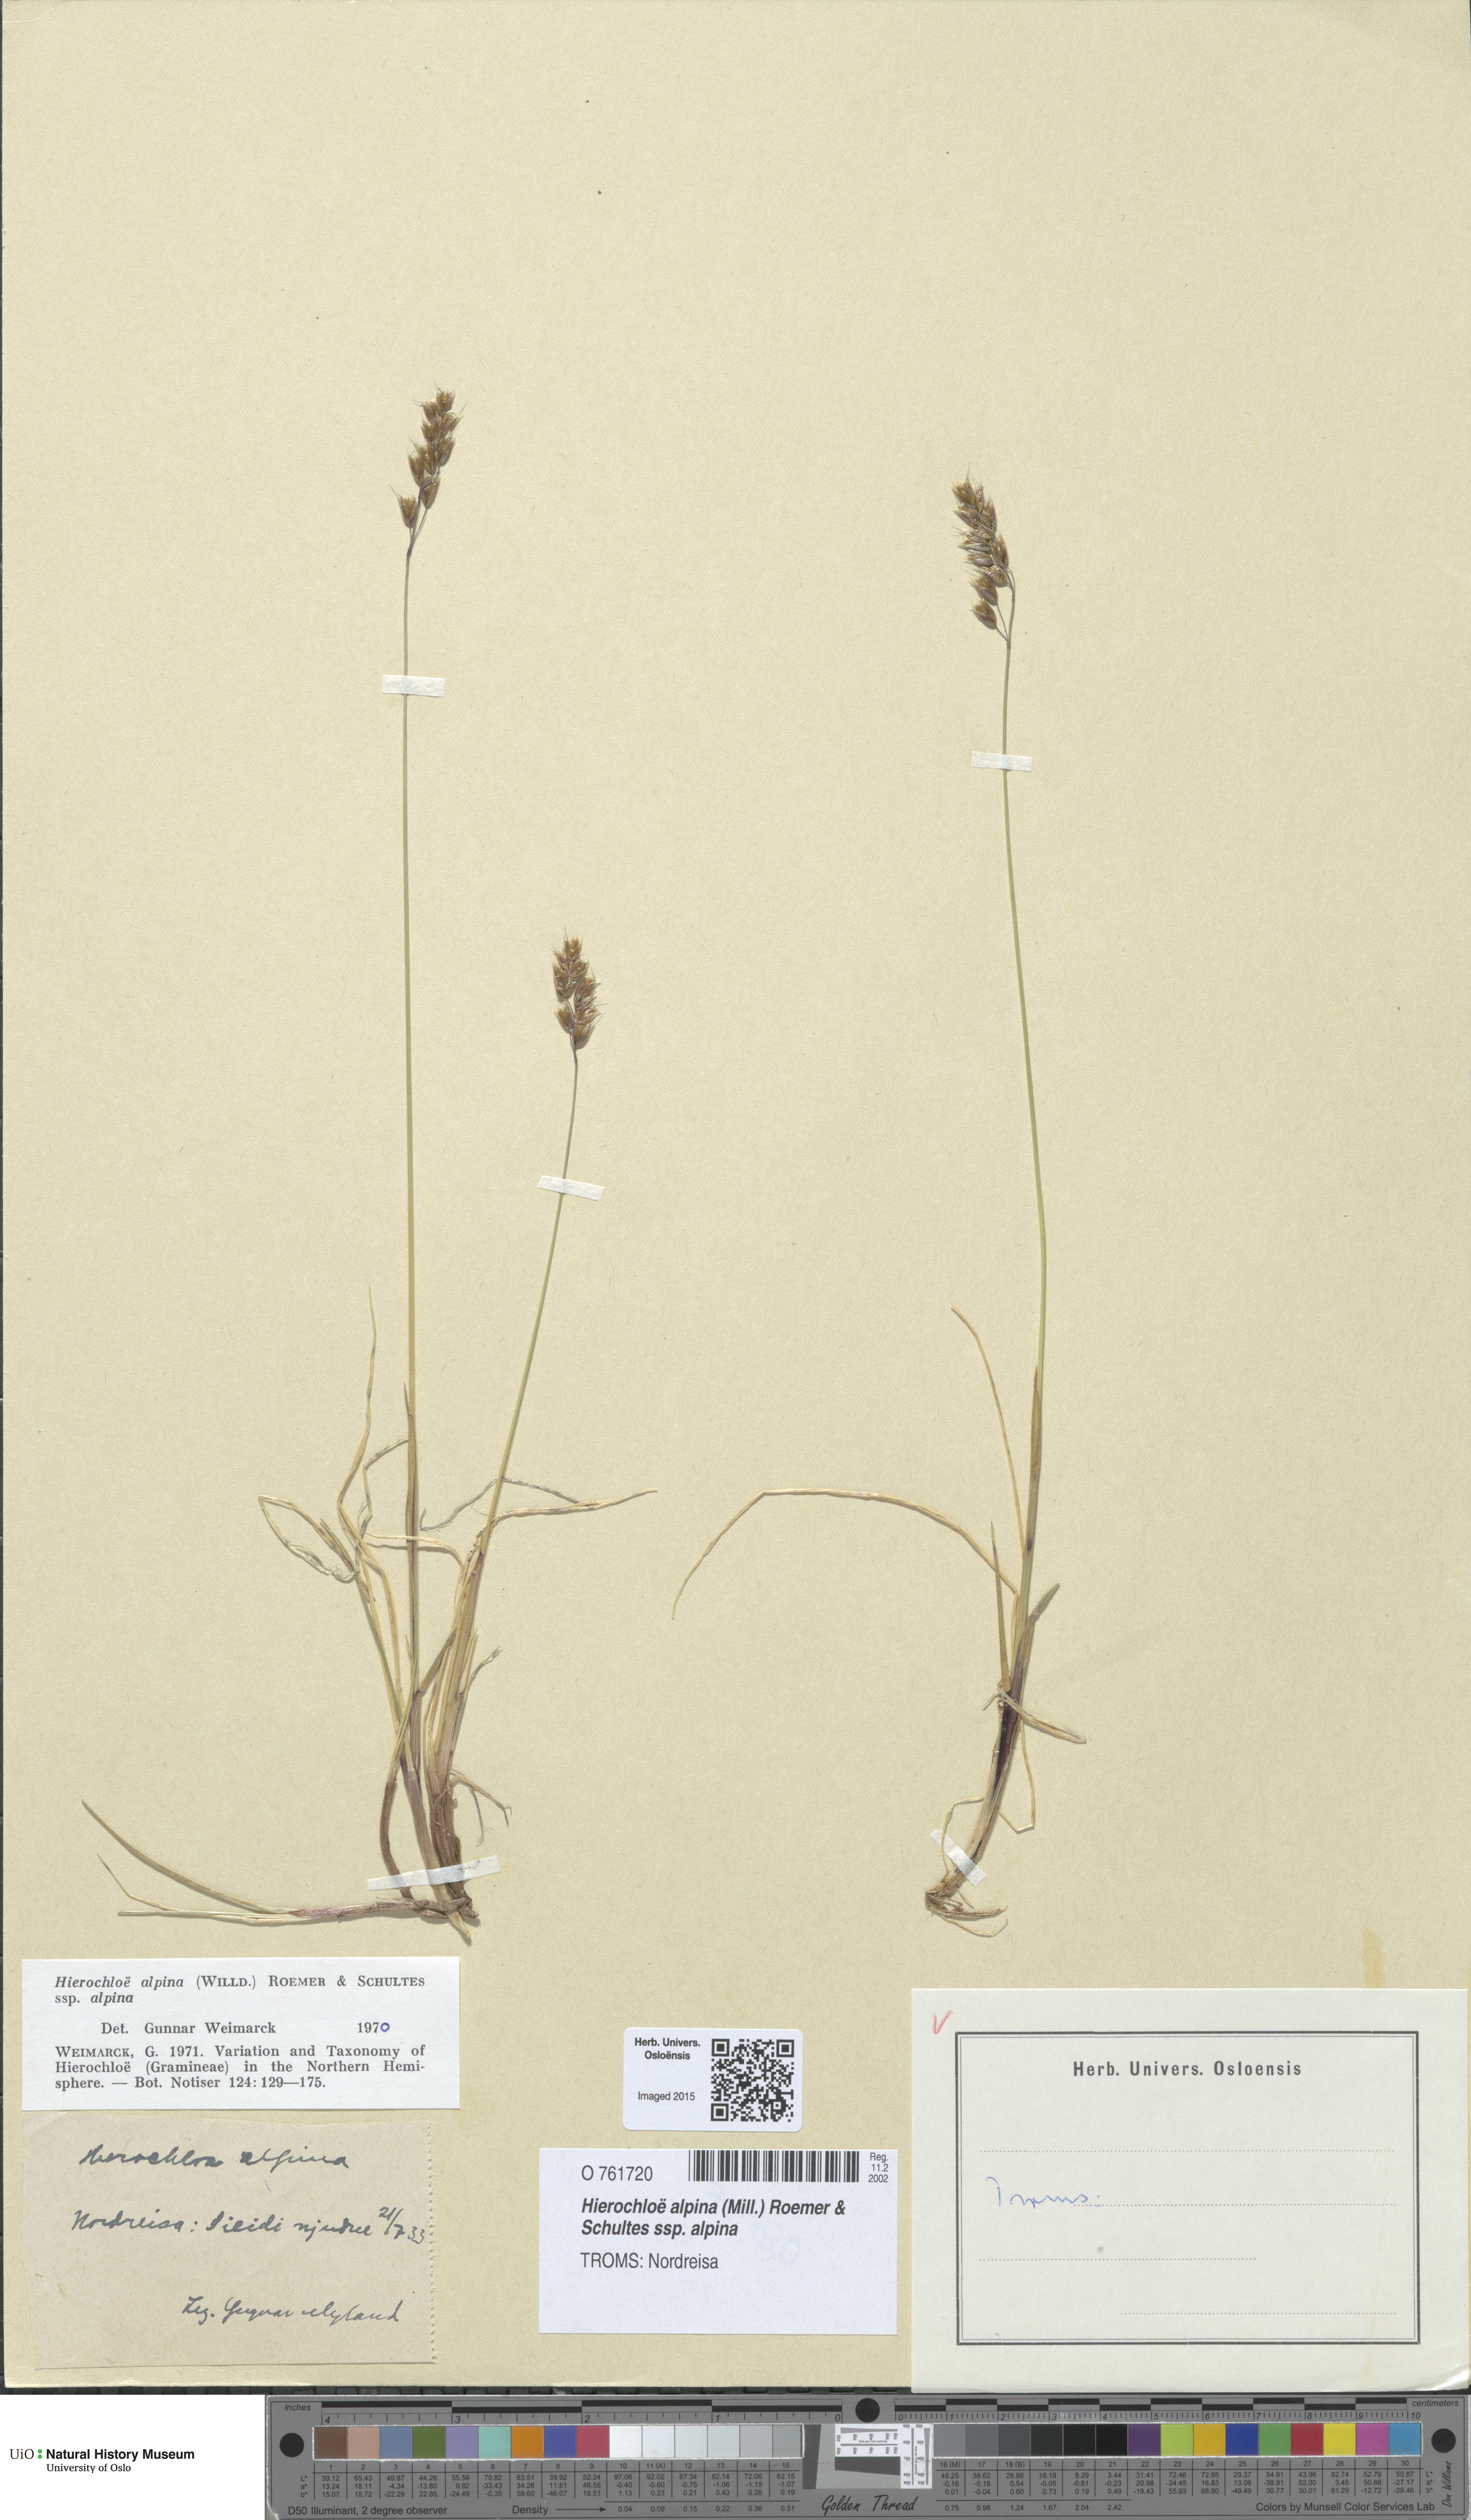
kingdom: Plantae
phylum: Tracheophyta
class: Liliopsida
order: Poales
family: Poaceae
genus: Anthoxanthum
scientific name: Anthoxanthum monticola
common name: Alpine sweetgrass
